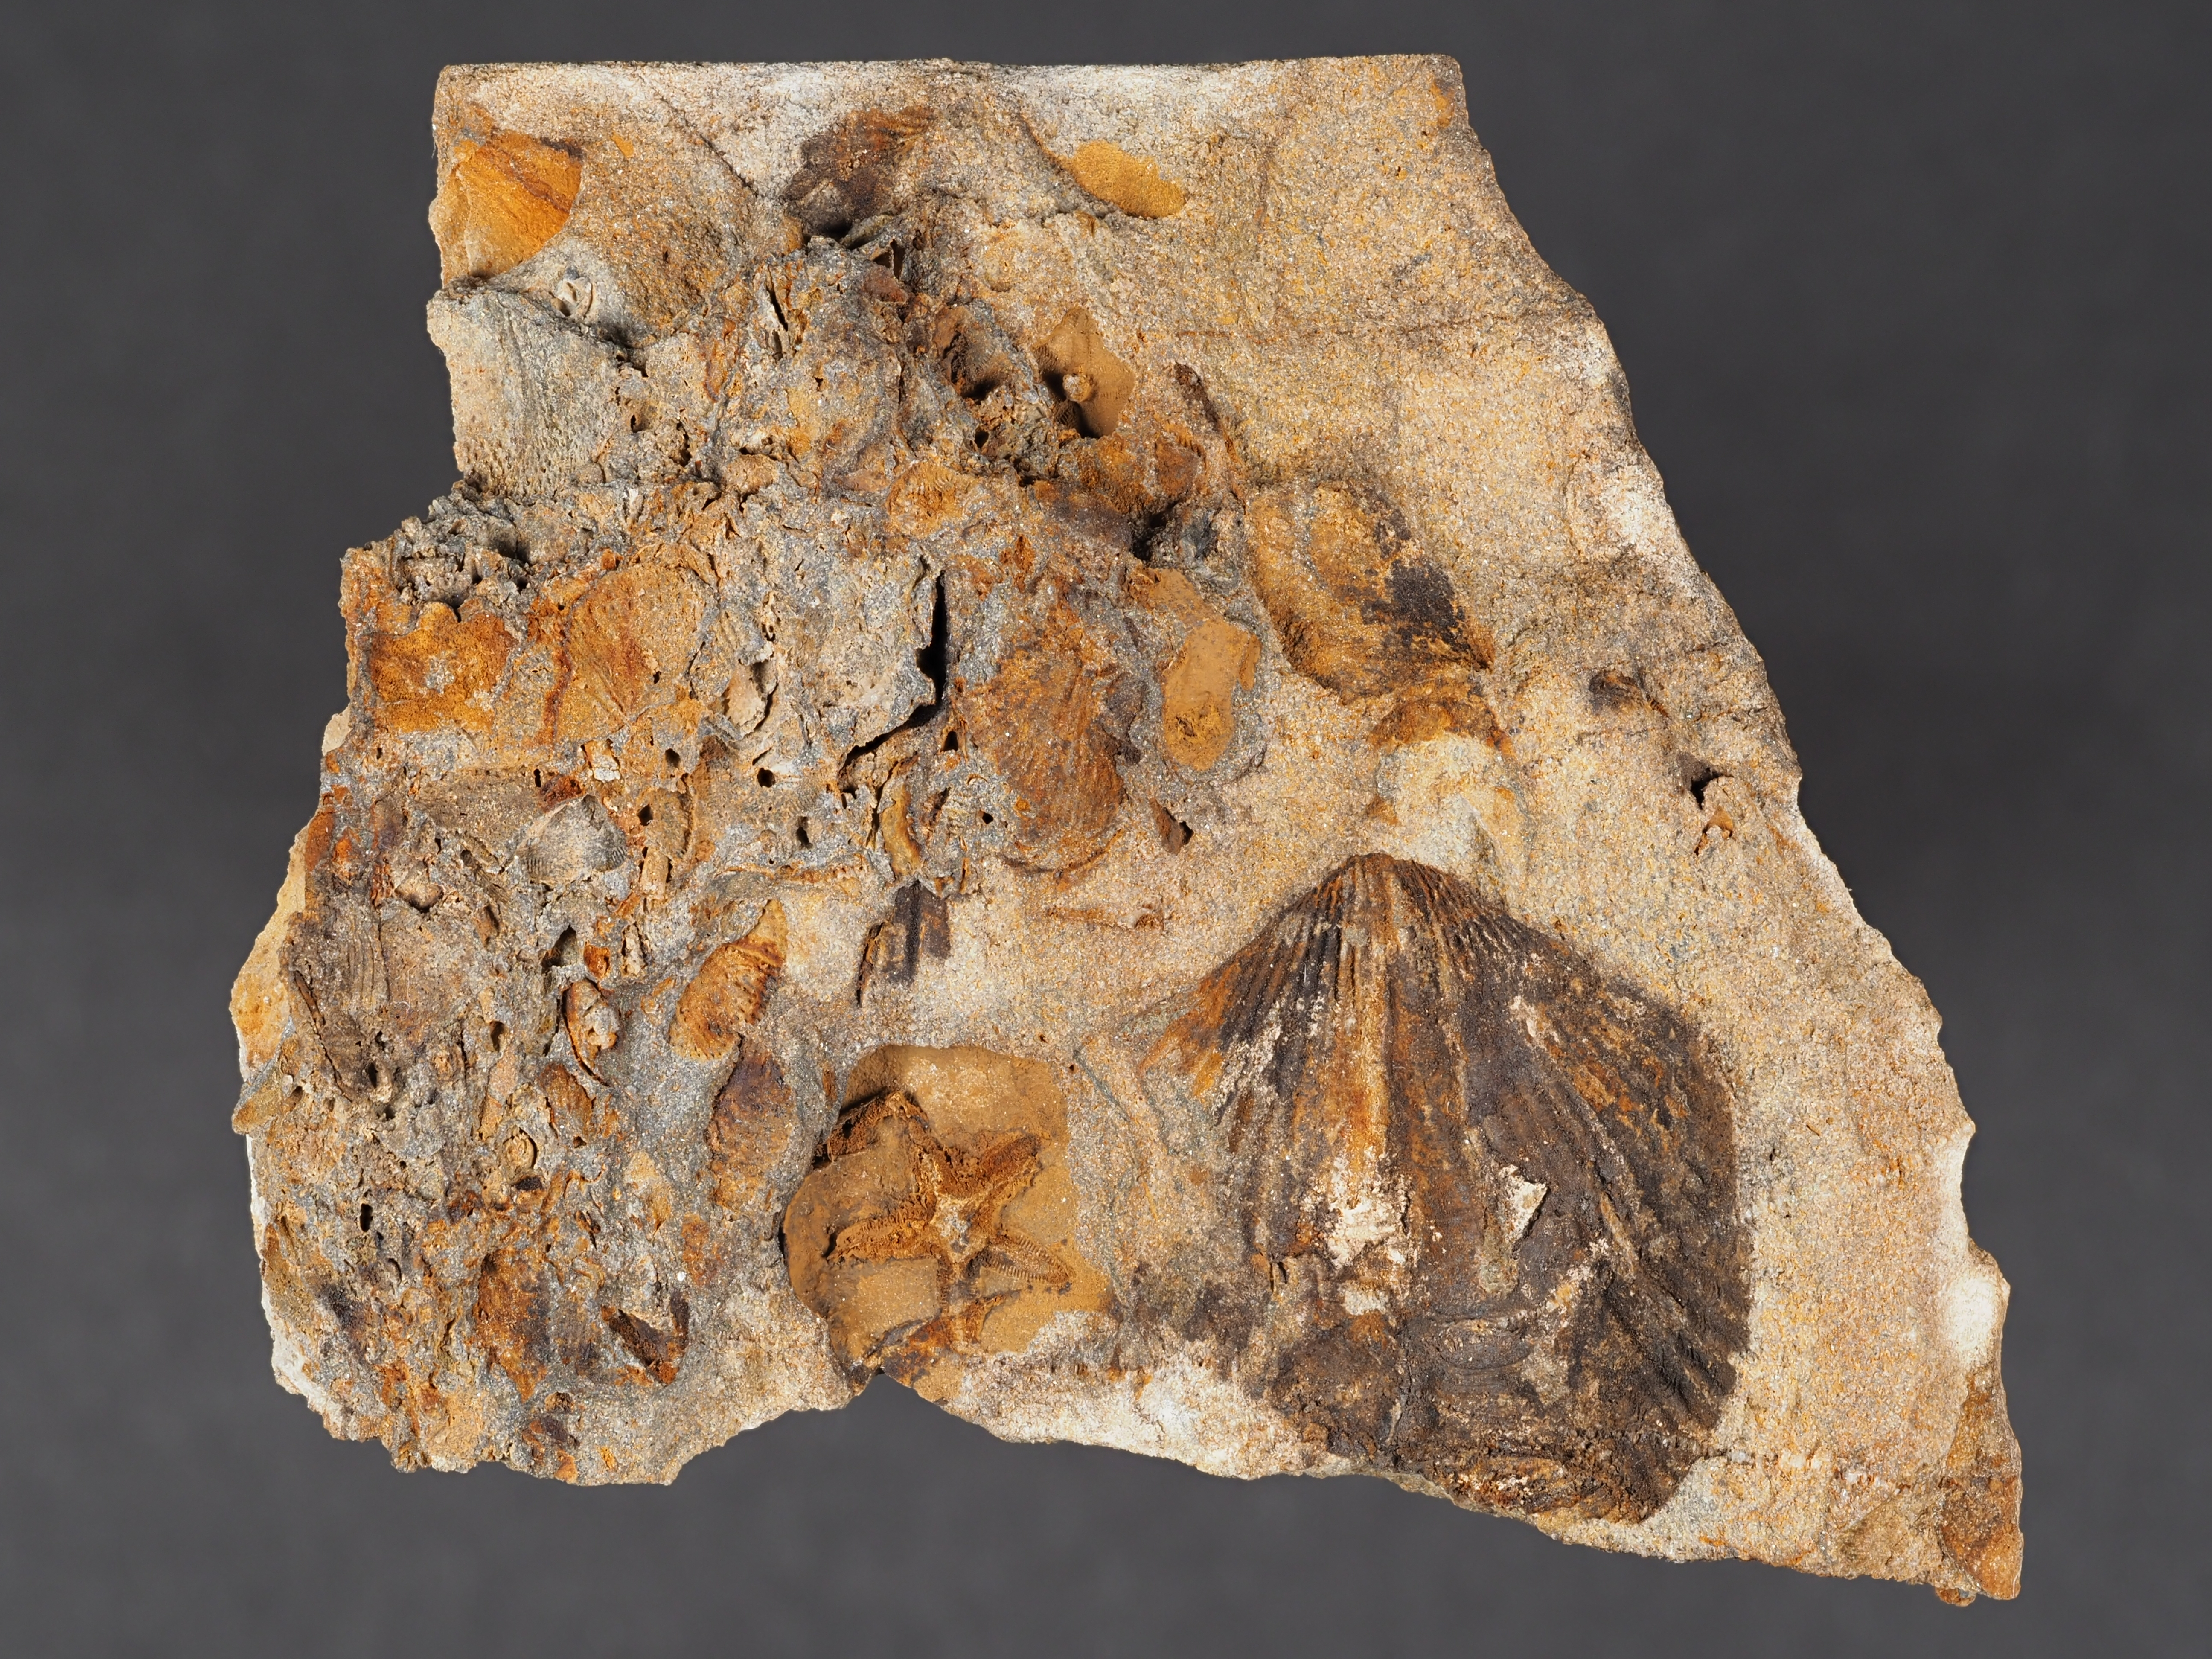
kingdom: Animalia
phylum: Brachiopoda
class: Rhynchonellata
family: Delthyrididae
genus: Brachyspirifer
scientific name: Brachyspirifer
